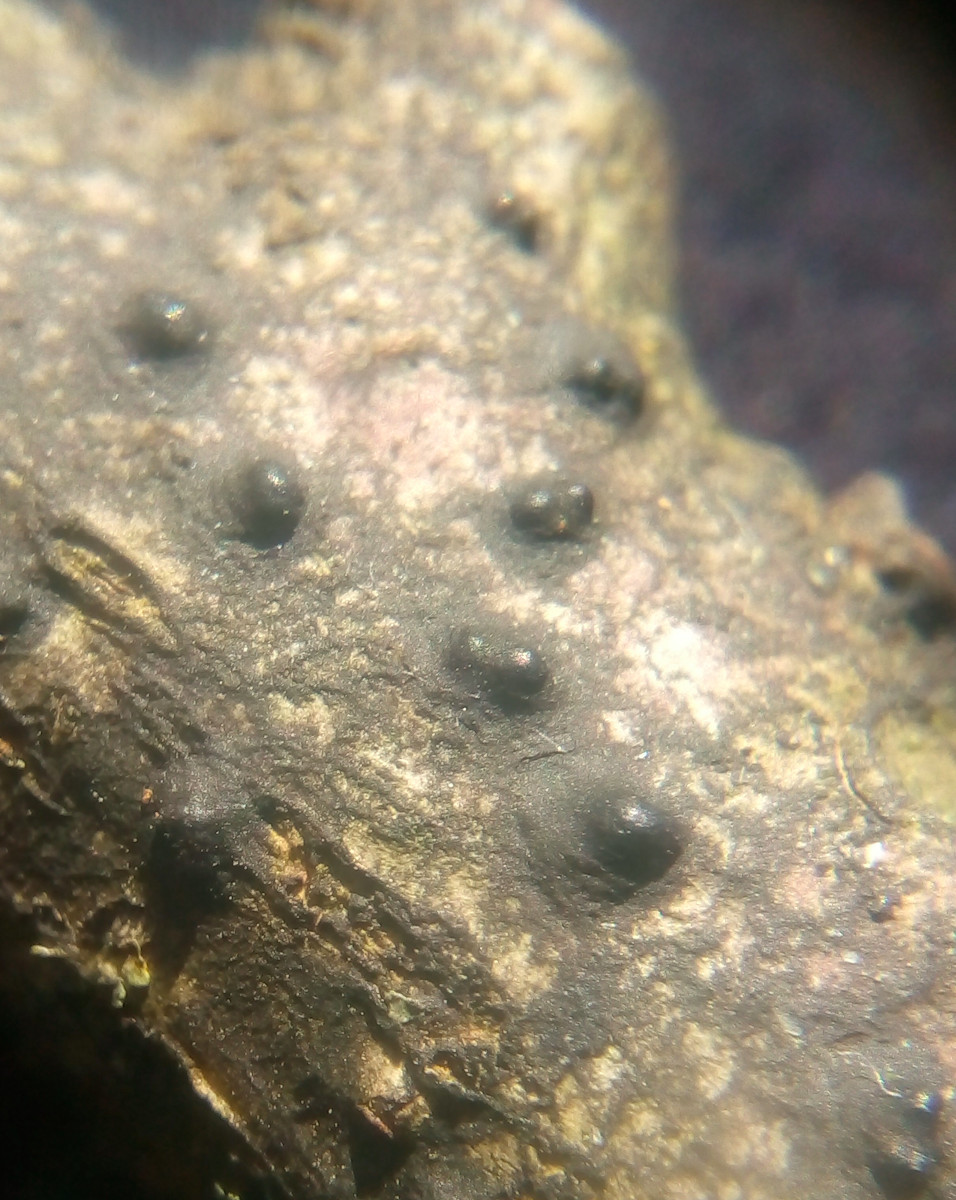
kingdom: Fungi
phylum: Ascomycota
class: Sordariomycetes
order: Diaporthales
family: Juglanconidaceae
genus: Juglanconis
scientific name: Juglanconis pterocaryae
